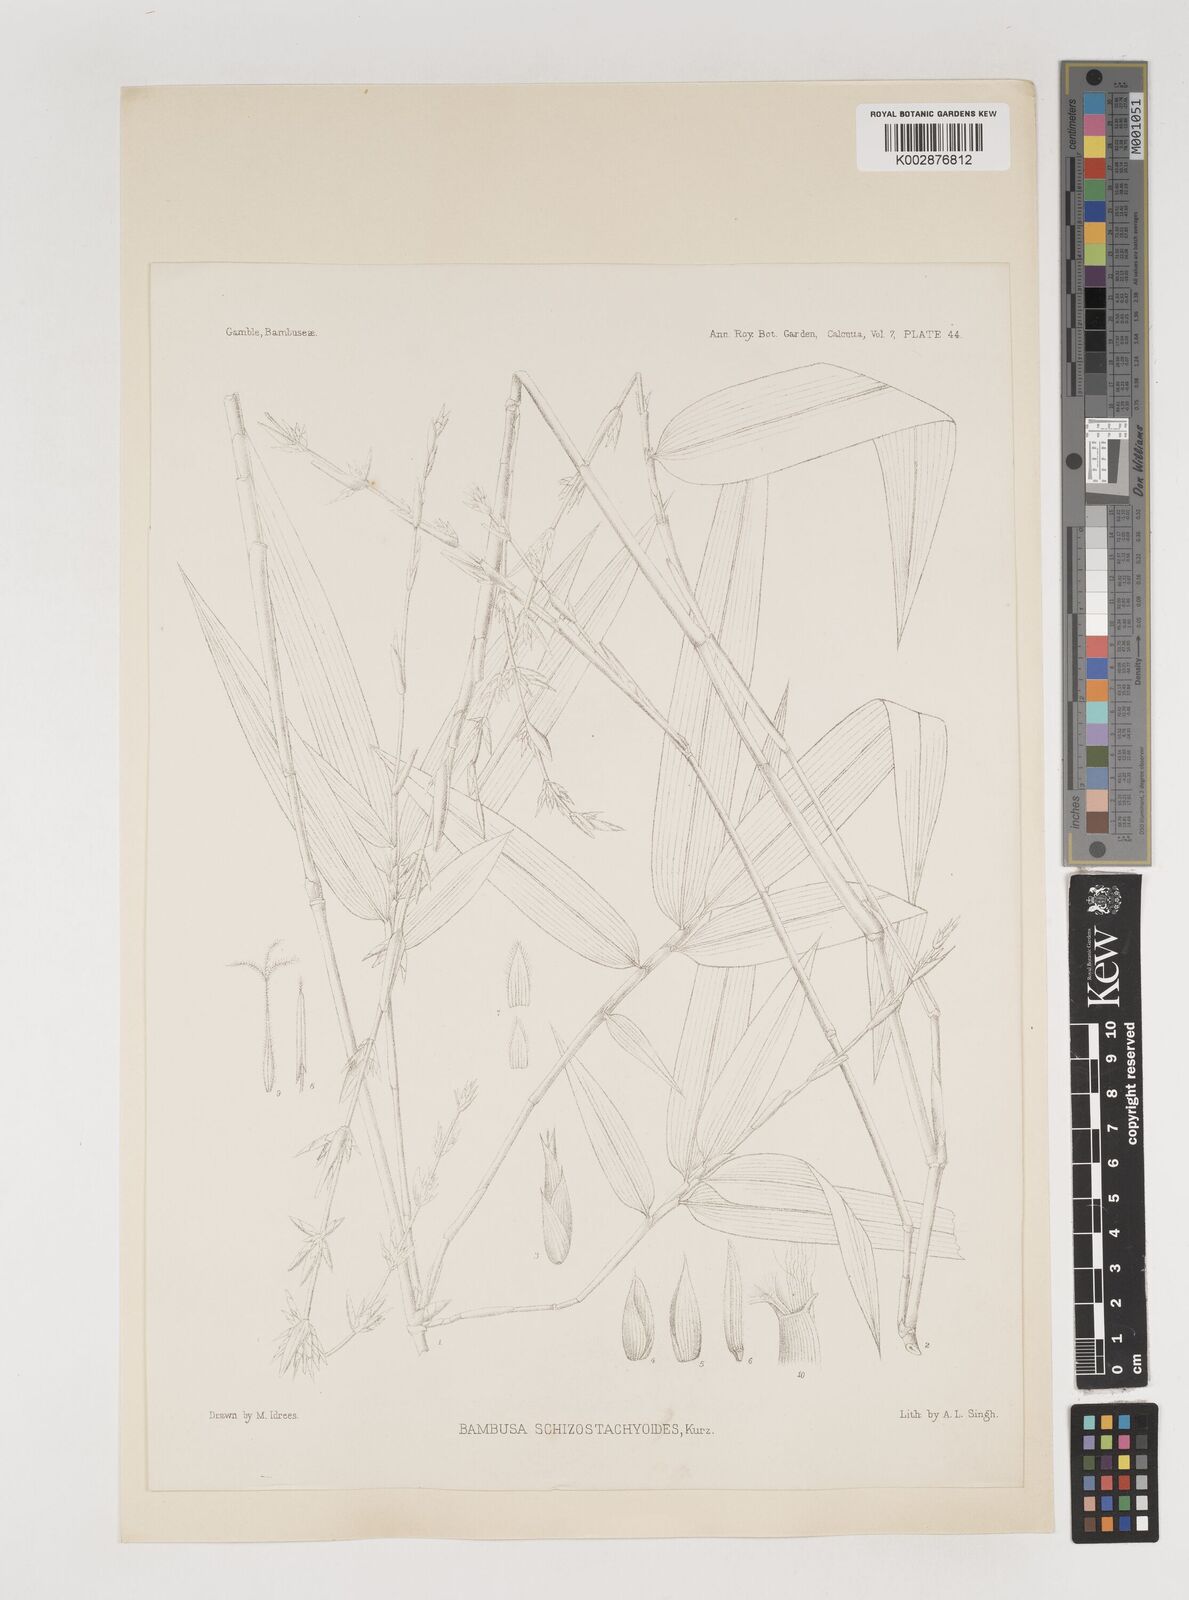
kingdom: Plantae
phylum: Tracheophyta
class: Liliopsida
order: Poales
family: Poaceae
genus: Pseudobambusa
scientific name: Pseudobambusa schizostachyoides
